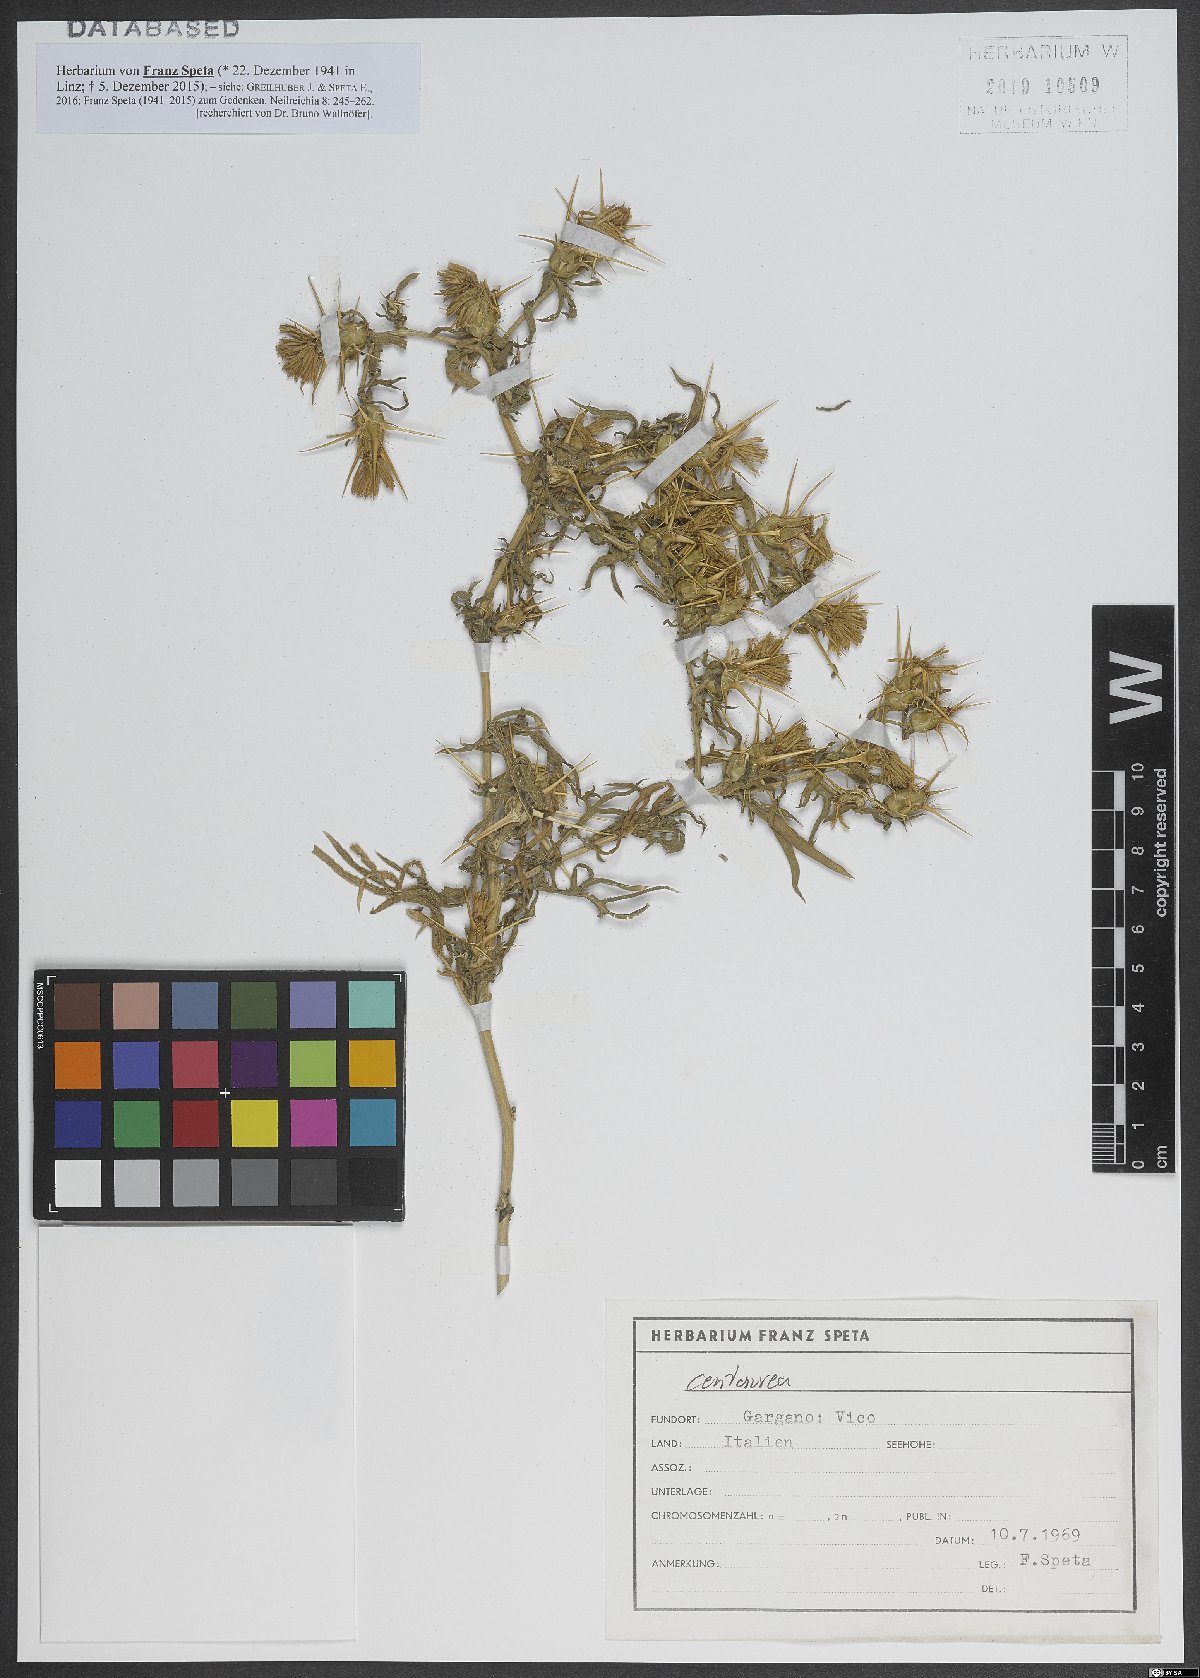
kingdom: Plantae
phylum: Tracheophyta
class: Magnoliopsida
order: Asterales
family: Asteraceae
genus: Centaurea
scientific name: Centaurea
